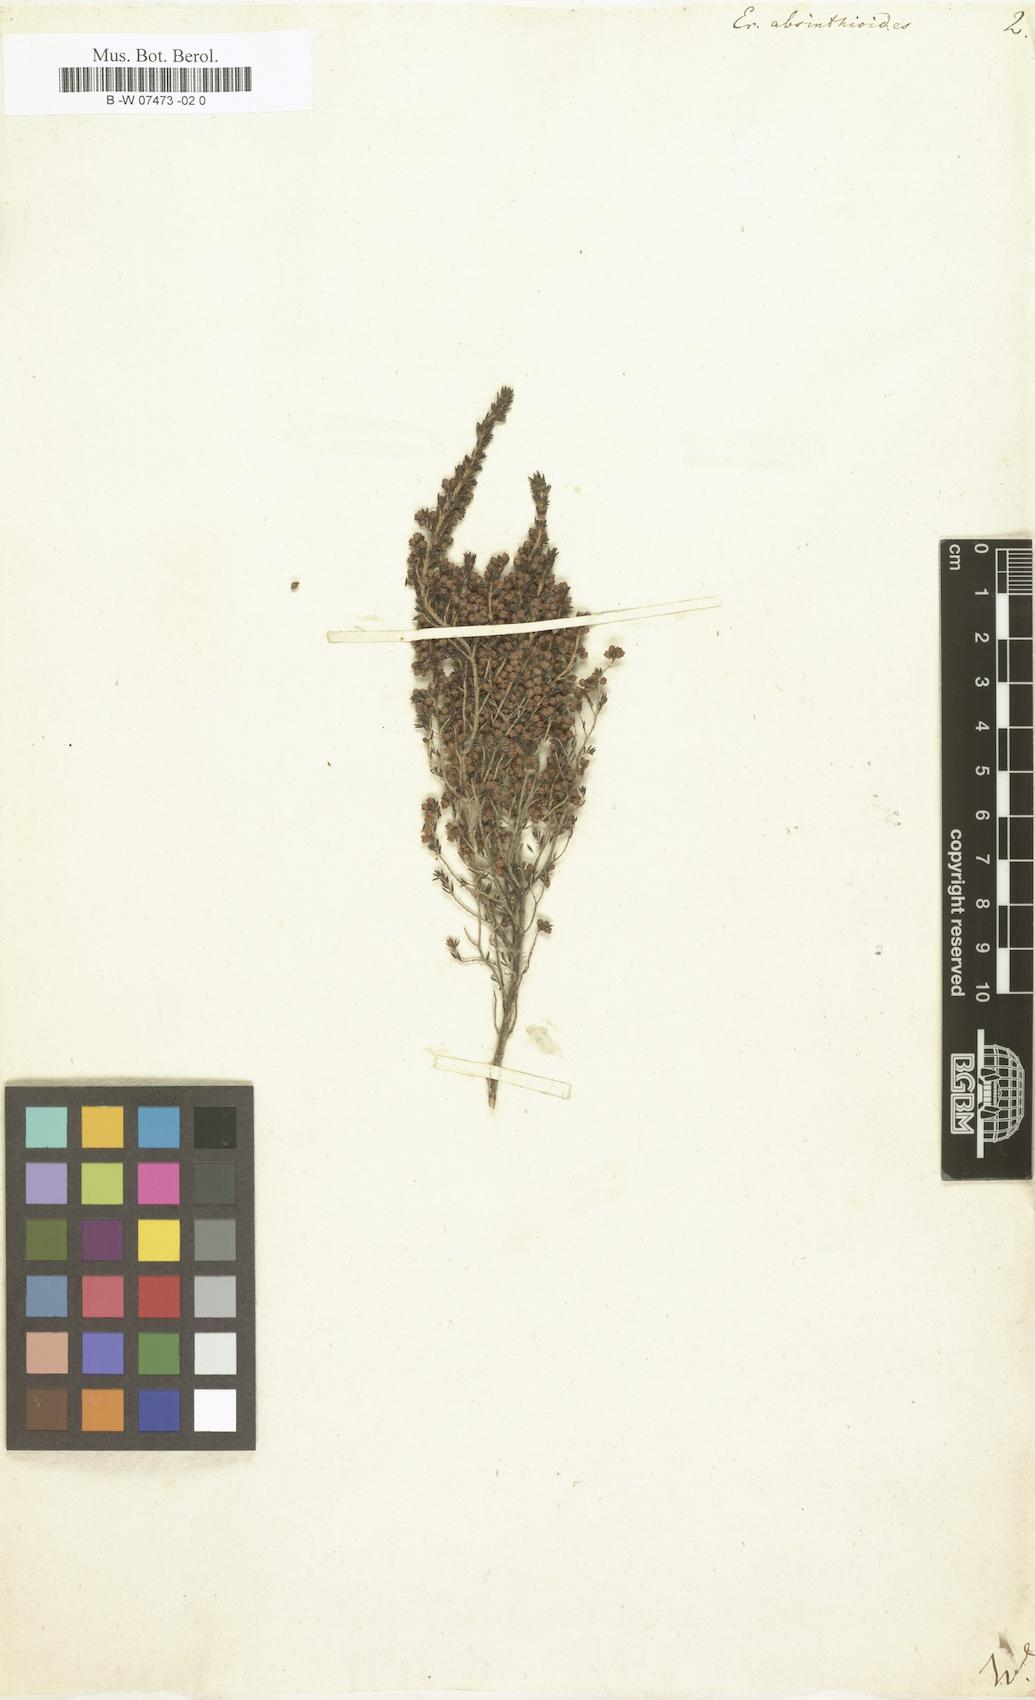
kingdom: Plantae
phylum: Tracheophyta
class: Magnoliopsida
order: Ericales
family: Ericaceae
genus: Erica
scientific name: Erica
